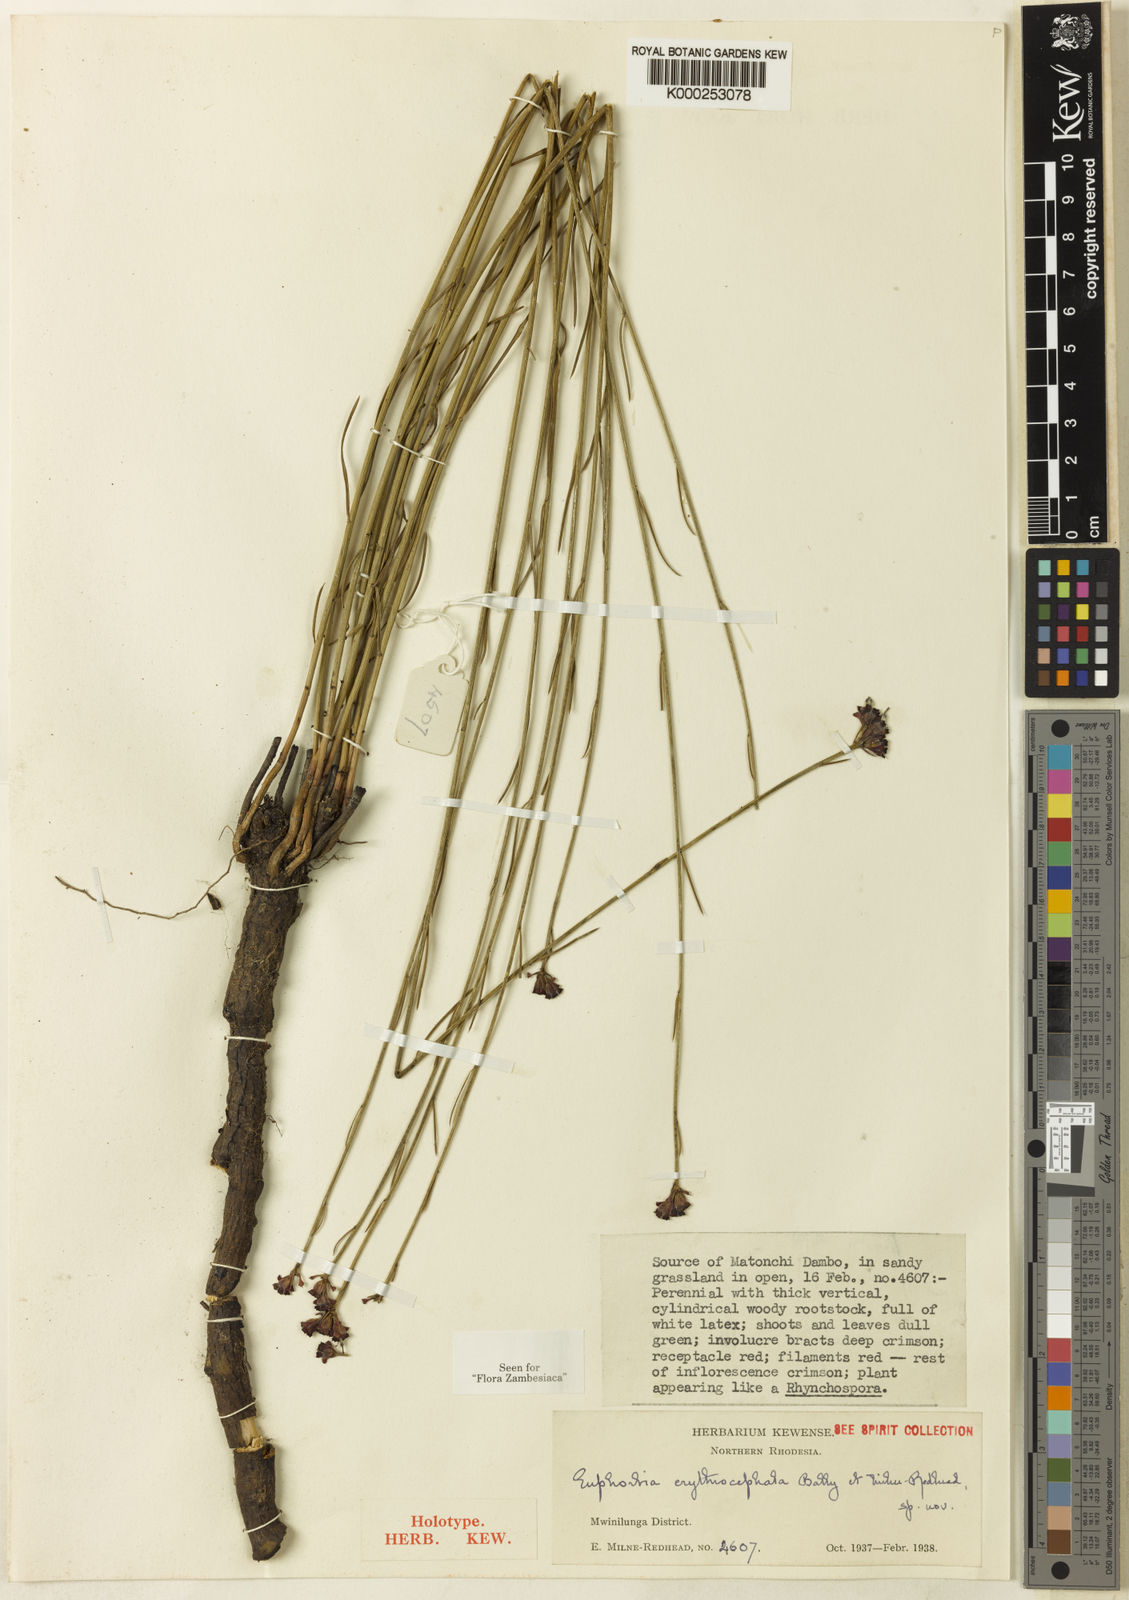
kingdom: Plantae
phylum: Tracheophyta
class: Magnoliopsida
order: Malpighiales
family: Euphorbiaceae
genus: Euphorbia
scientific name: Euphorbia erythrocephala
